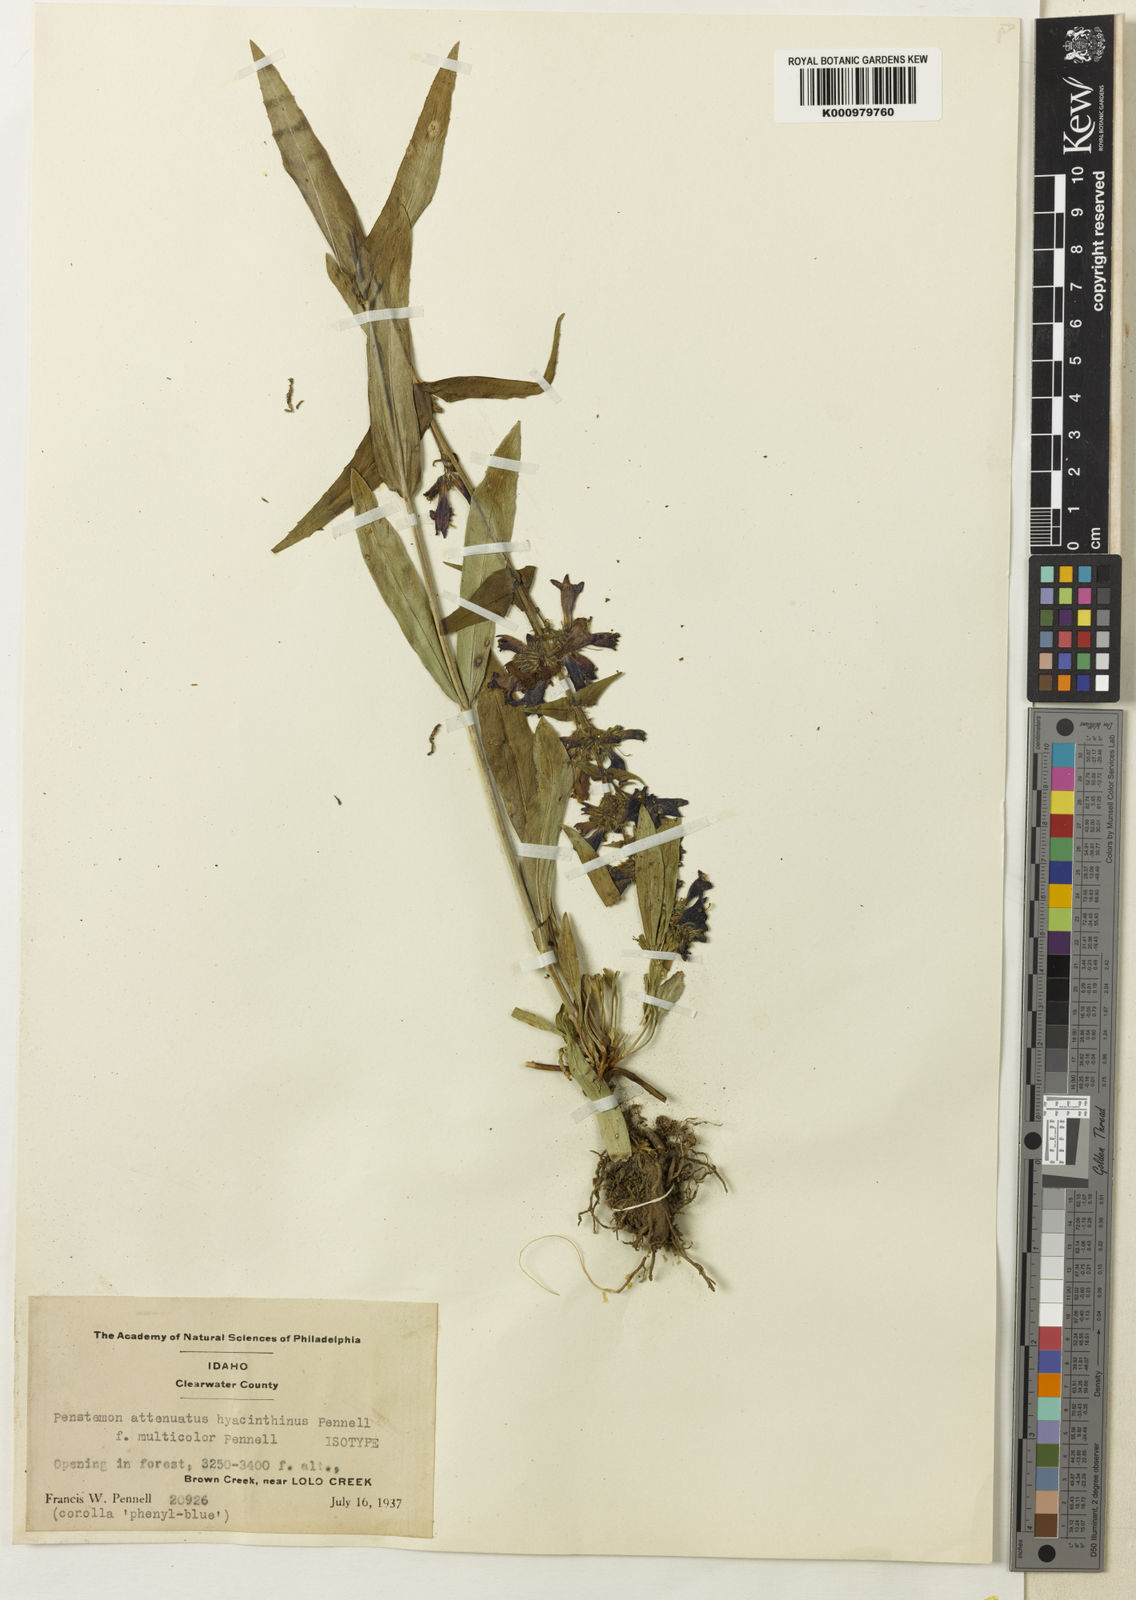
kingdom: Plantae
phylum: Tracheophyta
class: Magnoliopsida
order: Lamiales
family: Plantaginaceae
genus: Penstemon
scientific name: Penstemon
